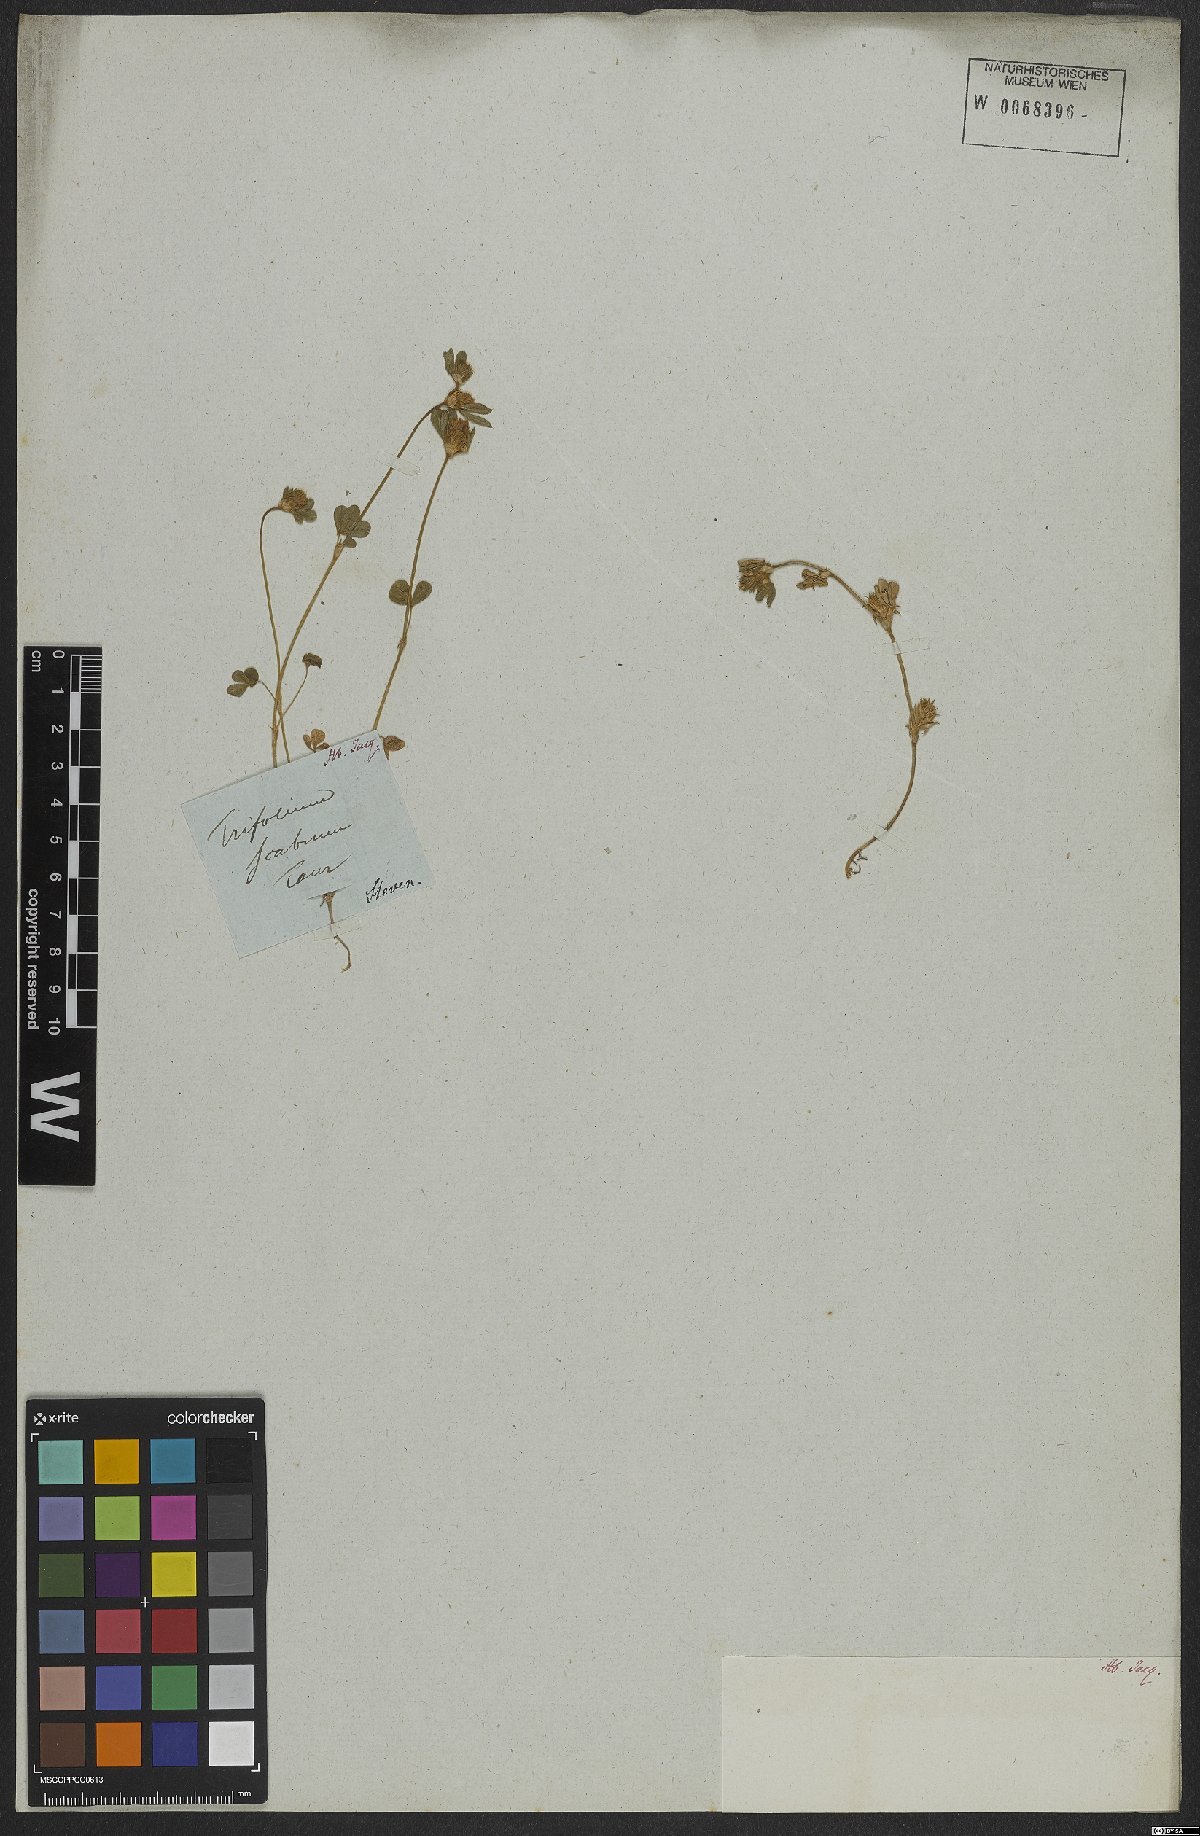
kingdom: Plantae
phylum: Tracheophyta
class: Magnoliopsida
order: Fabales
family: Fabaceae
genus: Trifolium
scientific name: Trifolium scabrum
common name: Rough clover
